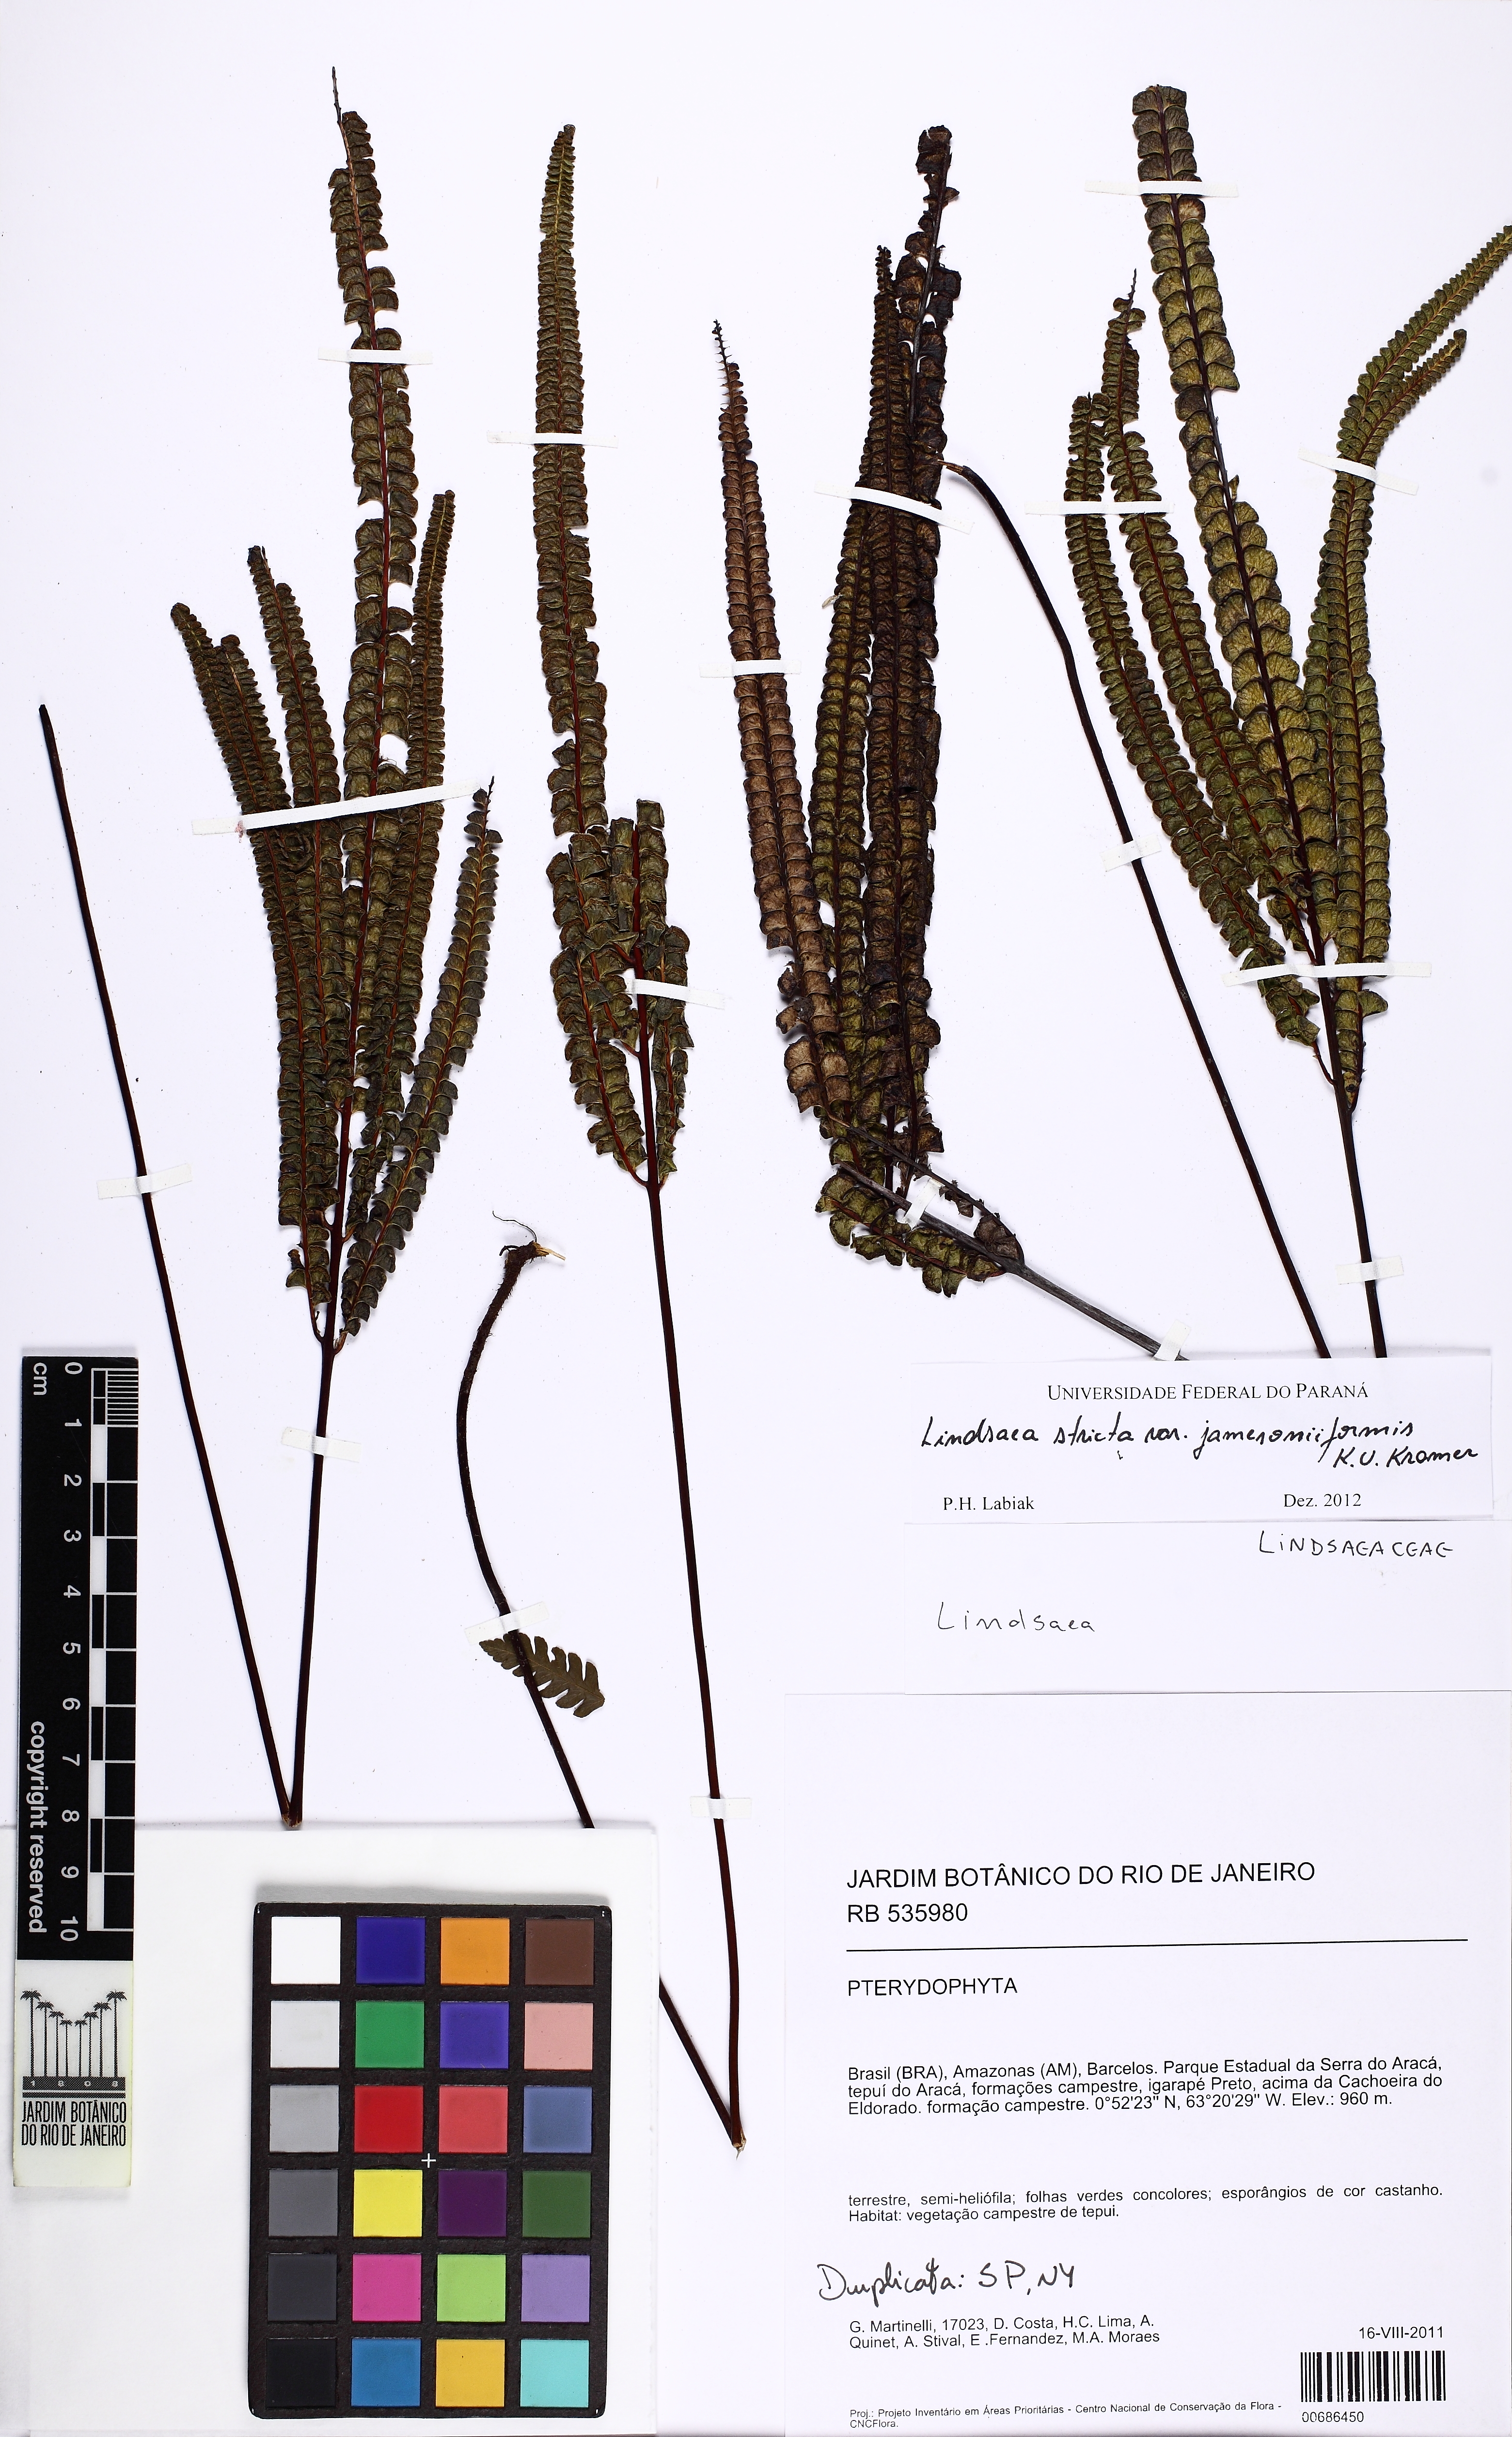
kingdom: Plantae
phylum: Tracheophyta
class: Polypodiopsida
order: Polypodiales
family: Lindsaeaceae
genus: Lindsaea
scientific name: Lindsaea jamesoniiformis
